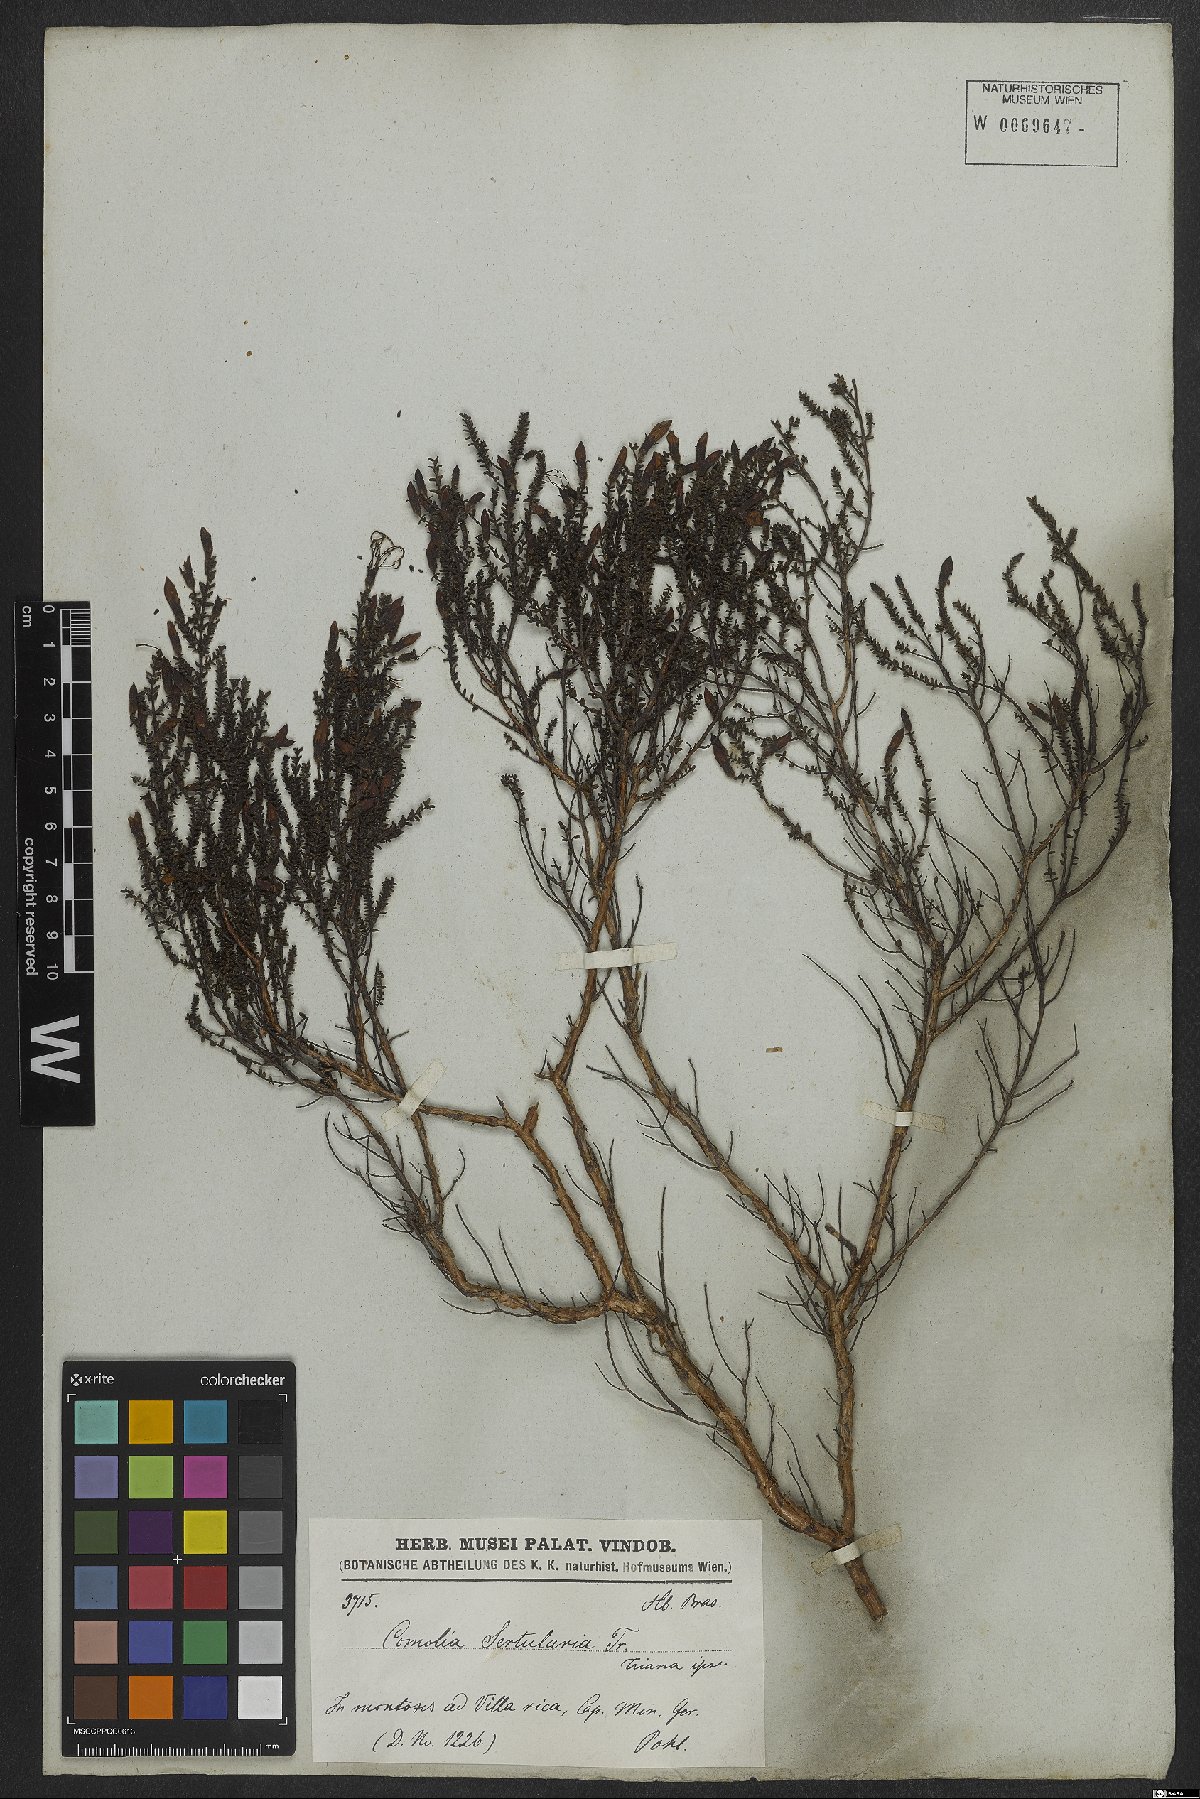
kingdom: Plantae
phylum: Tracheophyta
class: Magnoliopsida
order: Myrtales
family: Melastomataceae
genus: Fritzschia
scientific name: Fritzschia sertularia
